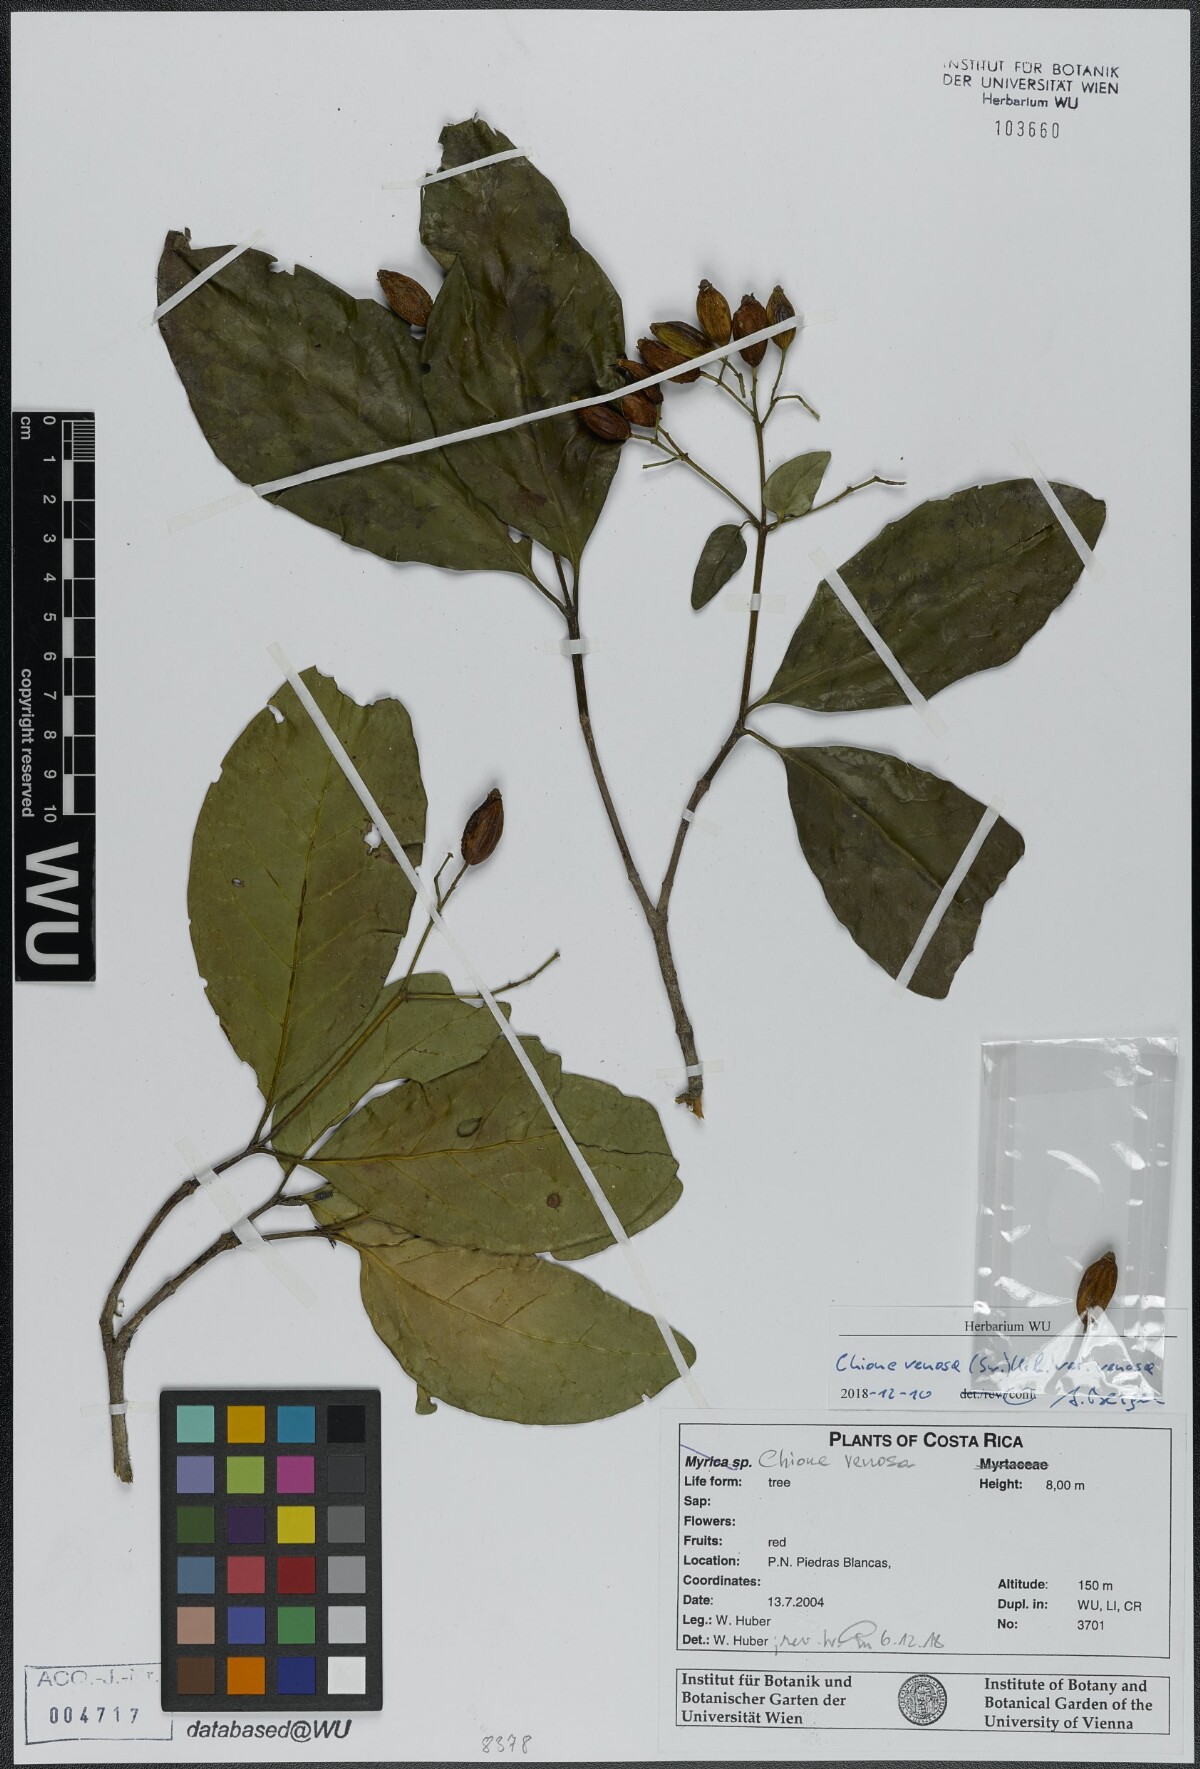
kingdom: Plantae
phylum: Tracheophyta
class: Magnoliopsida
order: Gentianales
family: Rubiaceae
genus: Chione
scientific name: Chione venosa
